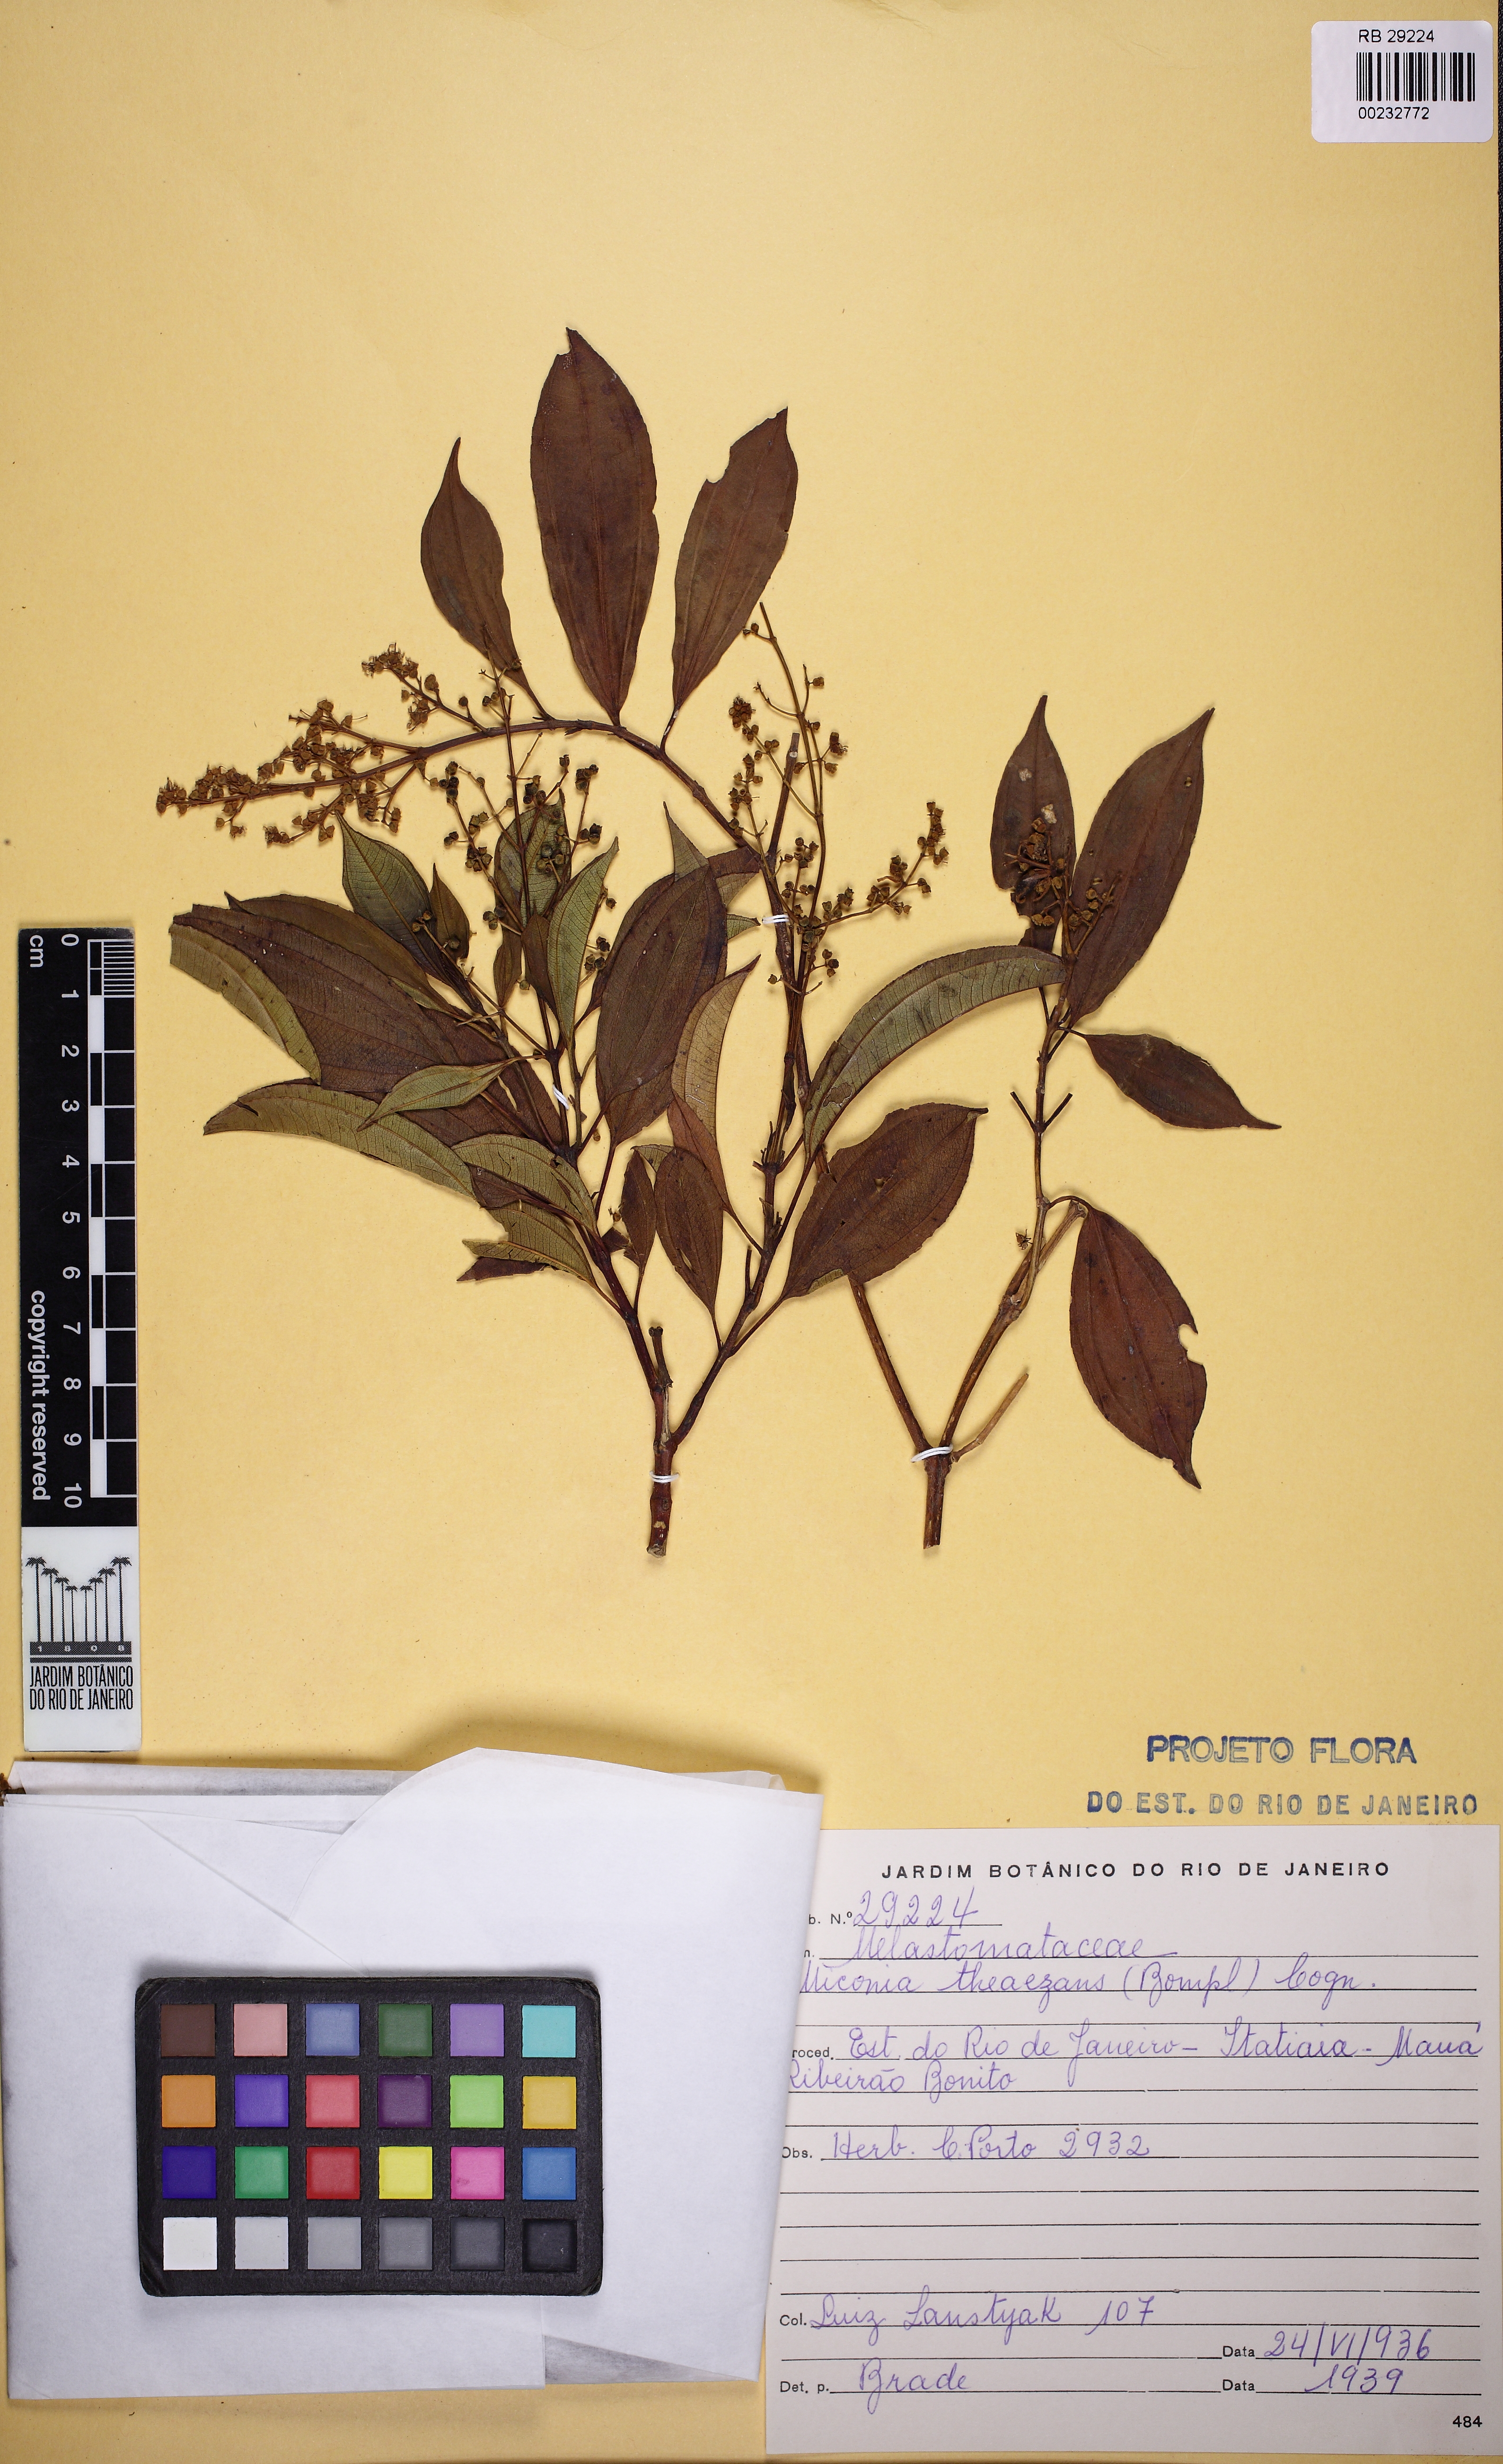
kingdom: Plantae
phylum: Tracheophyta
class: Magnoliopsida
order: Myrtales
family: Melastomataceae
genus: Miconia
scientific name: Miconia theizans
